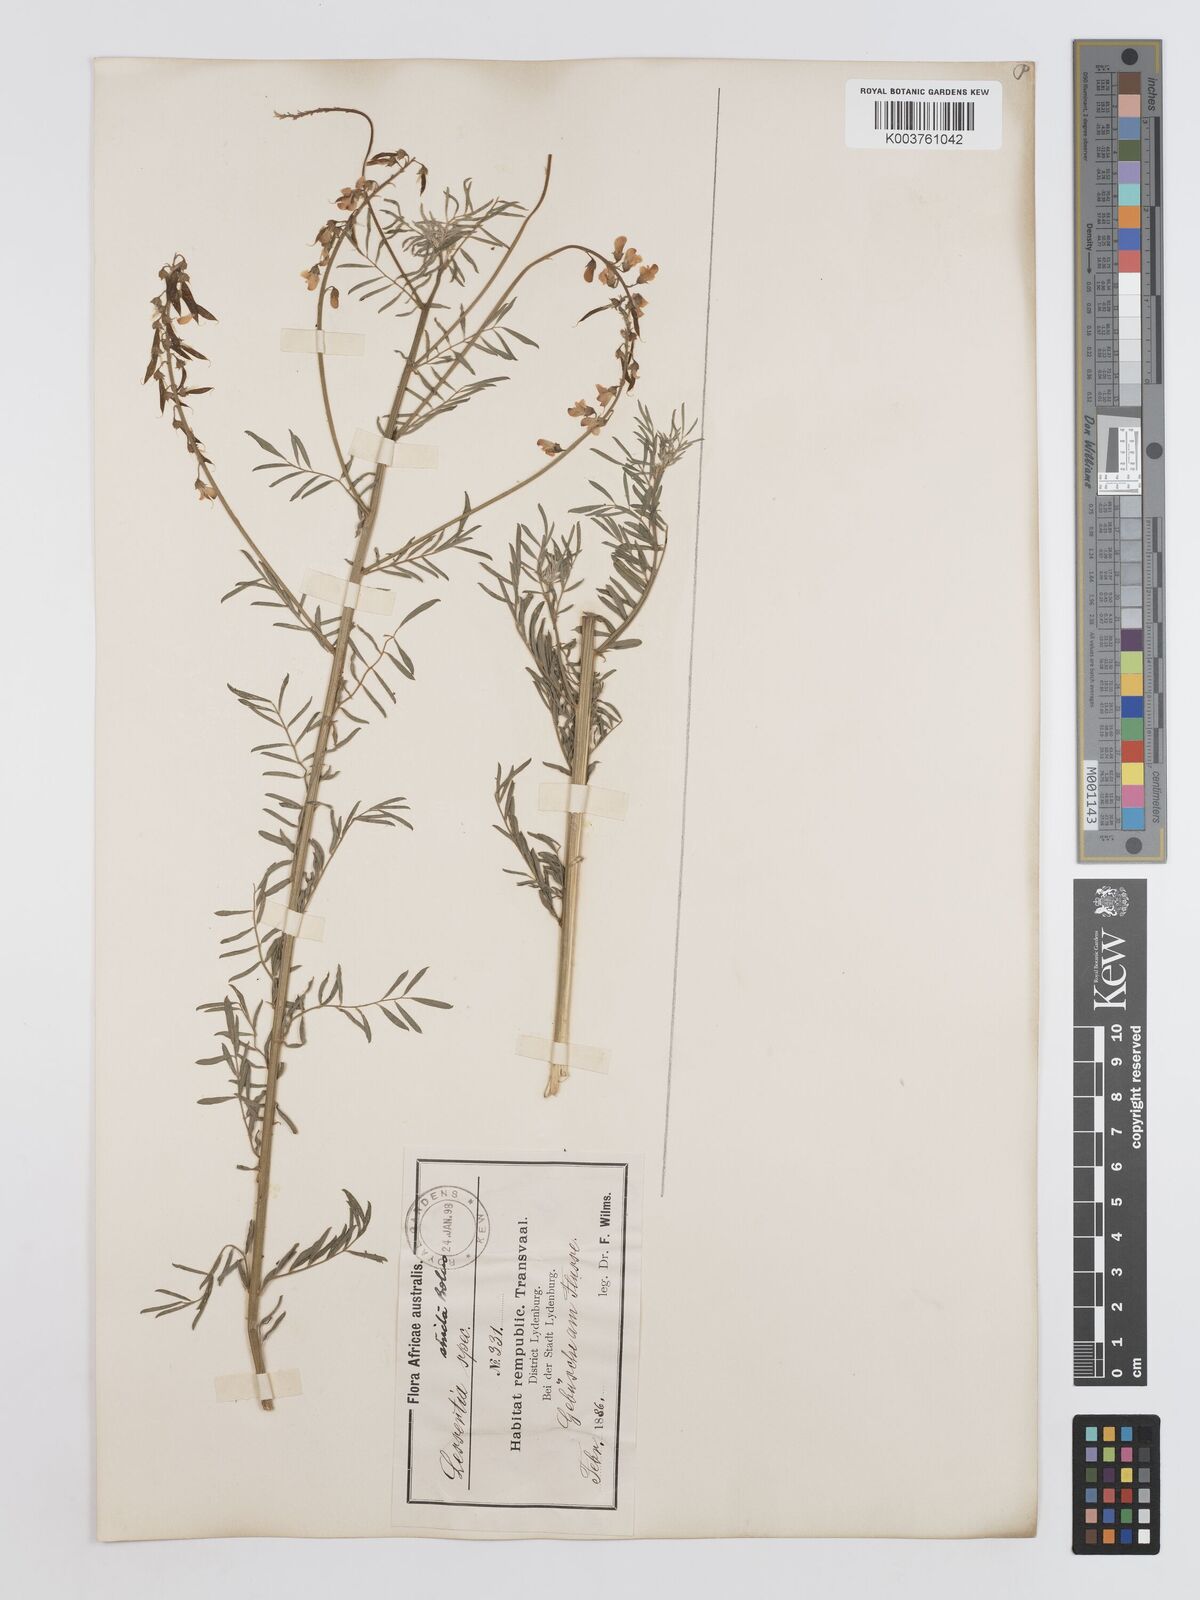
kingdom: Plantae
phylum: Tracheophyta
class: Magnoliopsida
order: Fabales
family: Fabaceae
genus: Lessertia
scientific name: Lessertia stricta
